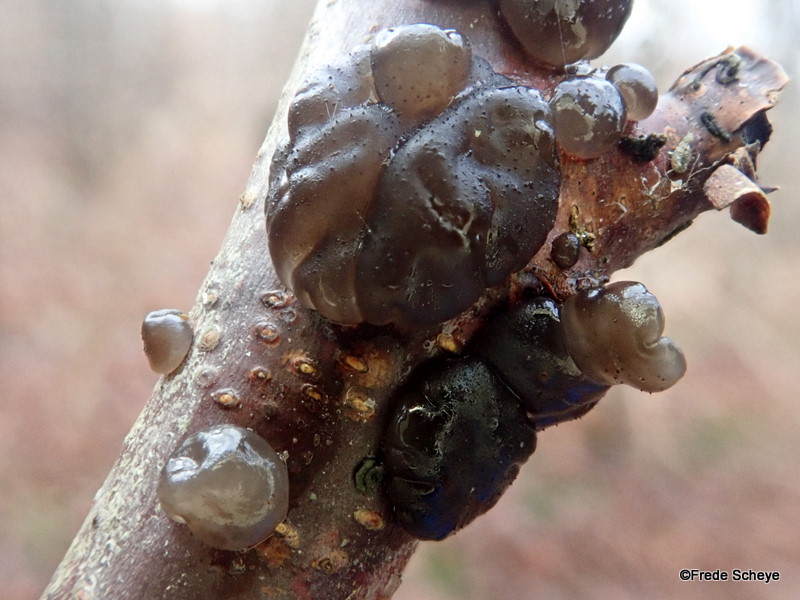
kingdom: Fungi
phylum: Basidiomycota
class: Agaricomycetes
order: Auriculariales
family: Auriculariaceae
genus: Exidia
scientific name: Exidia nigricans
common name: almindelig bævretop
